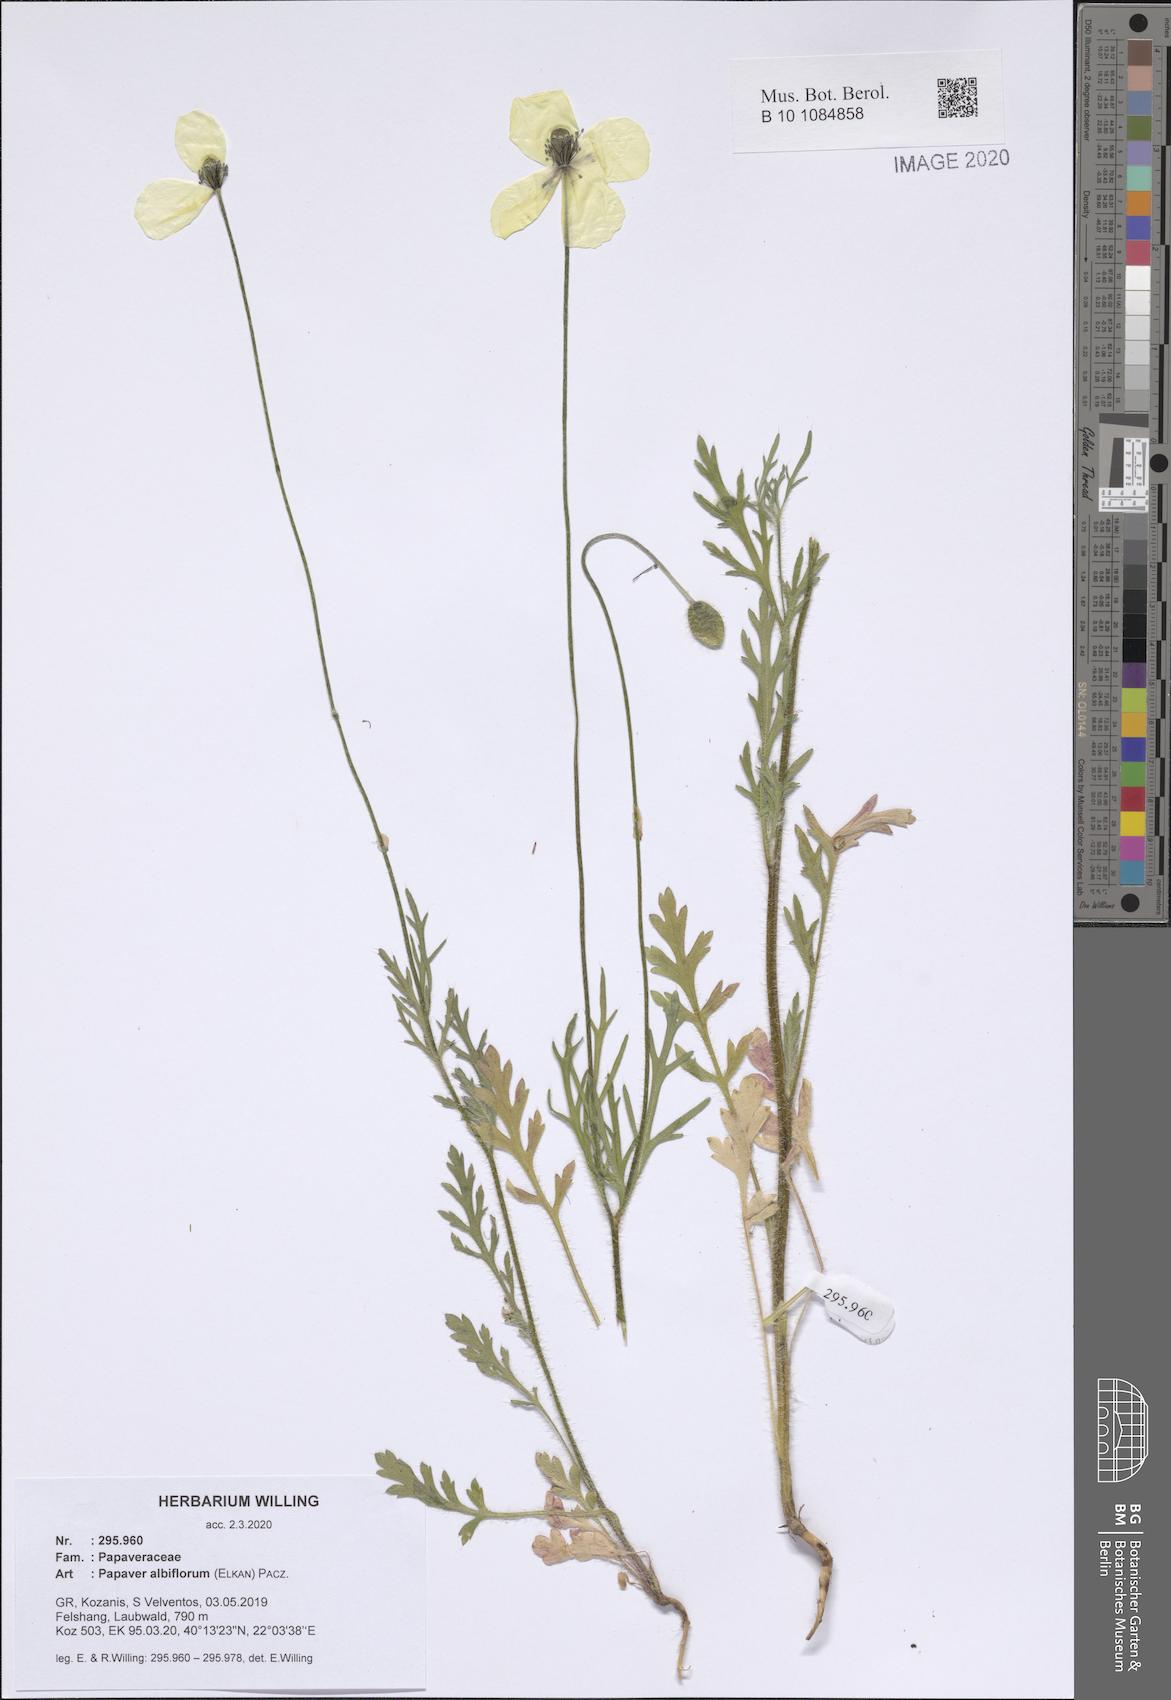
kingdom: Plantae
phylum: Tracheophyta
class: Magnoliopsida
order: Ranunculales
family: Papaveraceae
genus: Papaver
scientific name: Papaver albiflorum
